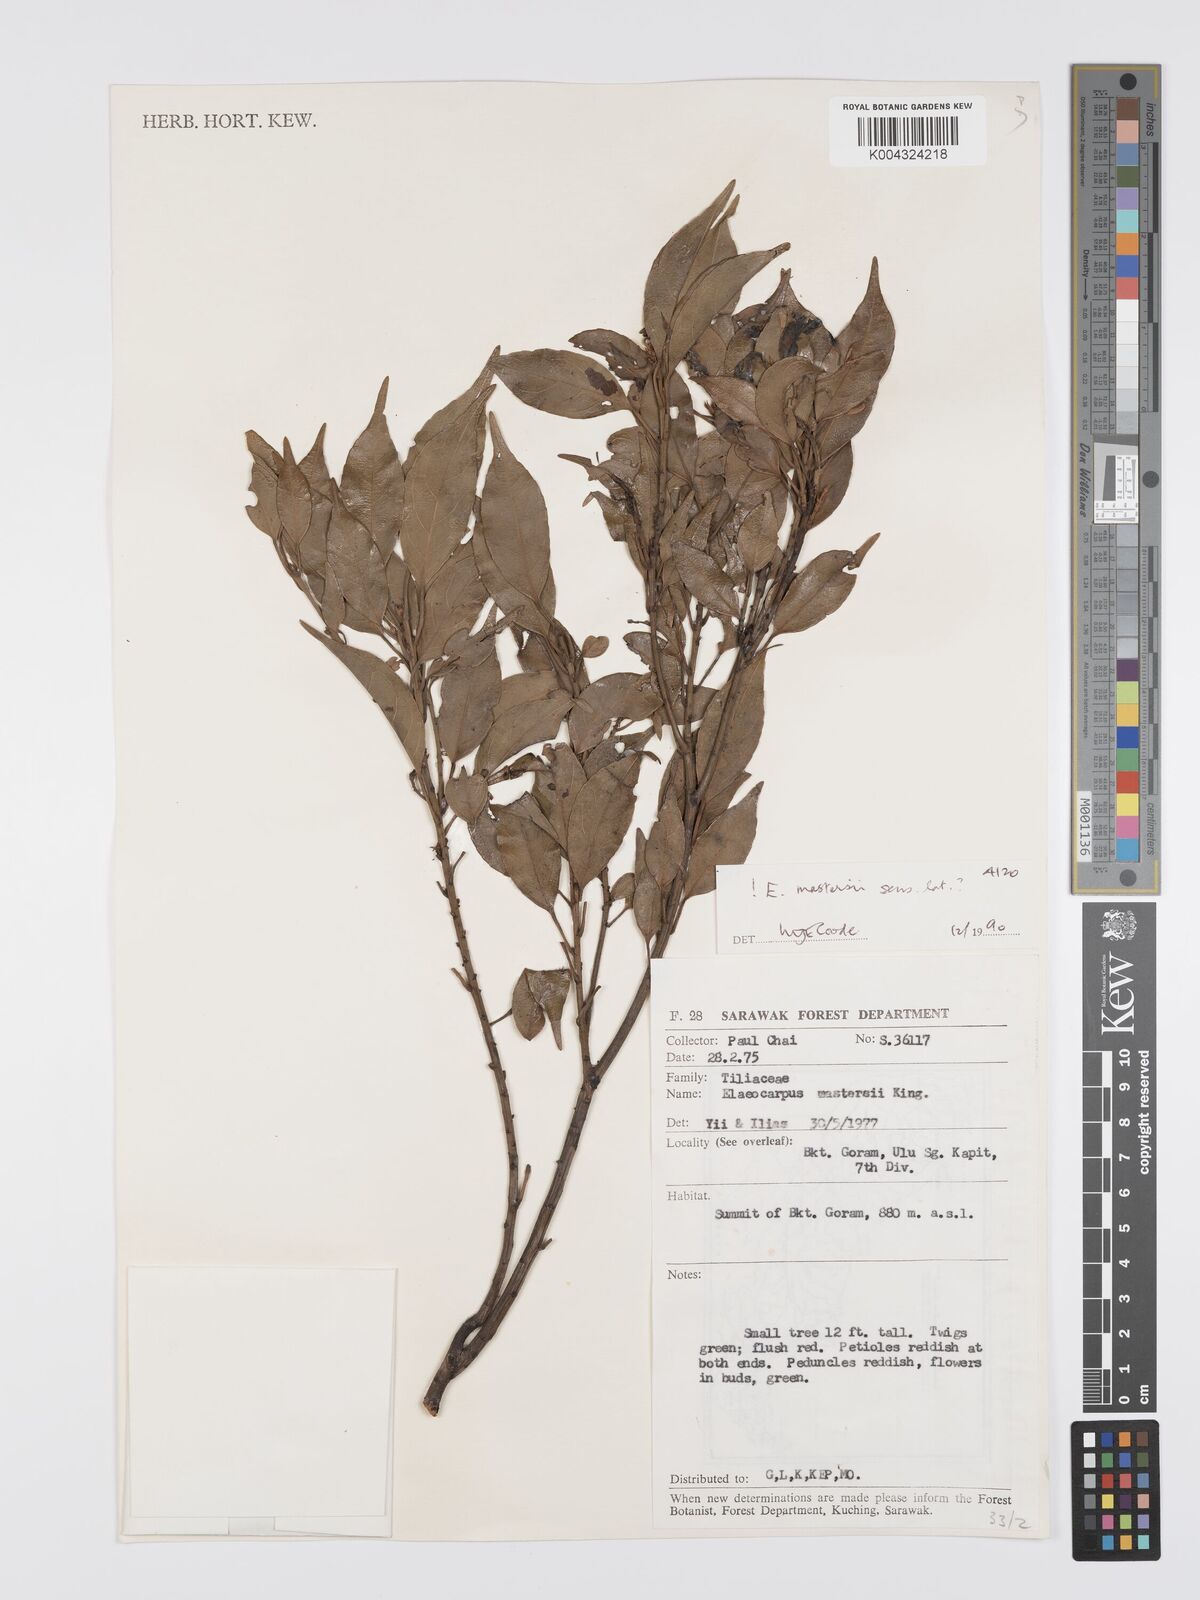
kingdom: Plantae
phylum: Tracheophyta
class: Magnoliopsida
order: Oxalidales
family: Elaeocarpaceae
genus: Elaeocarpus
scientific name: Elaeocarpus mastersii
